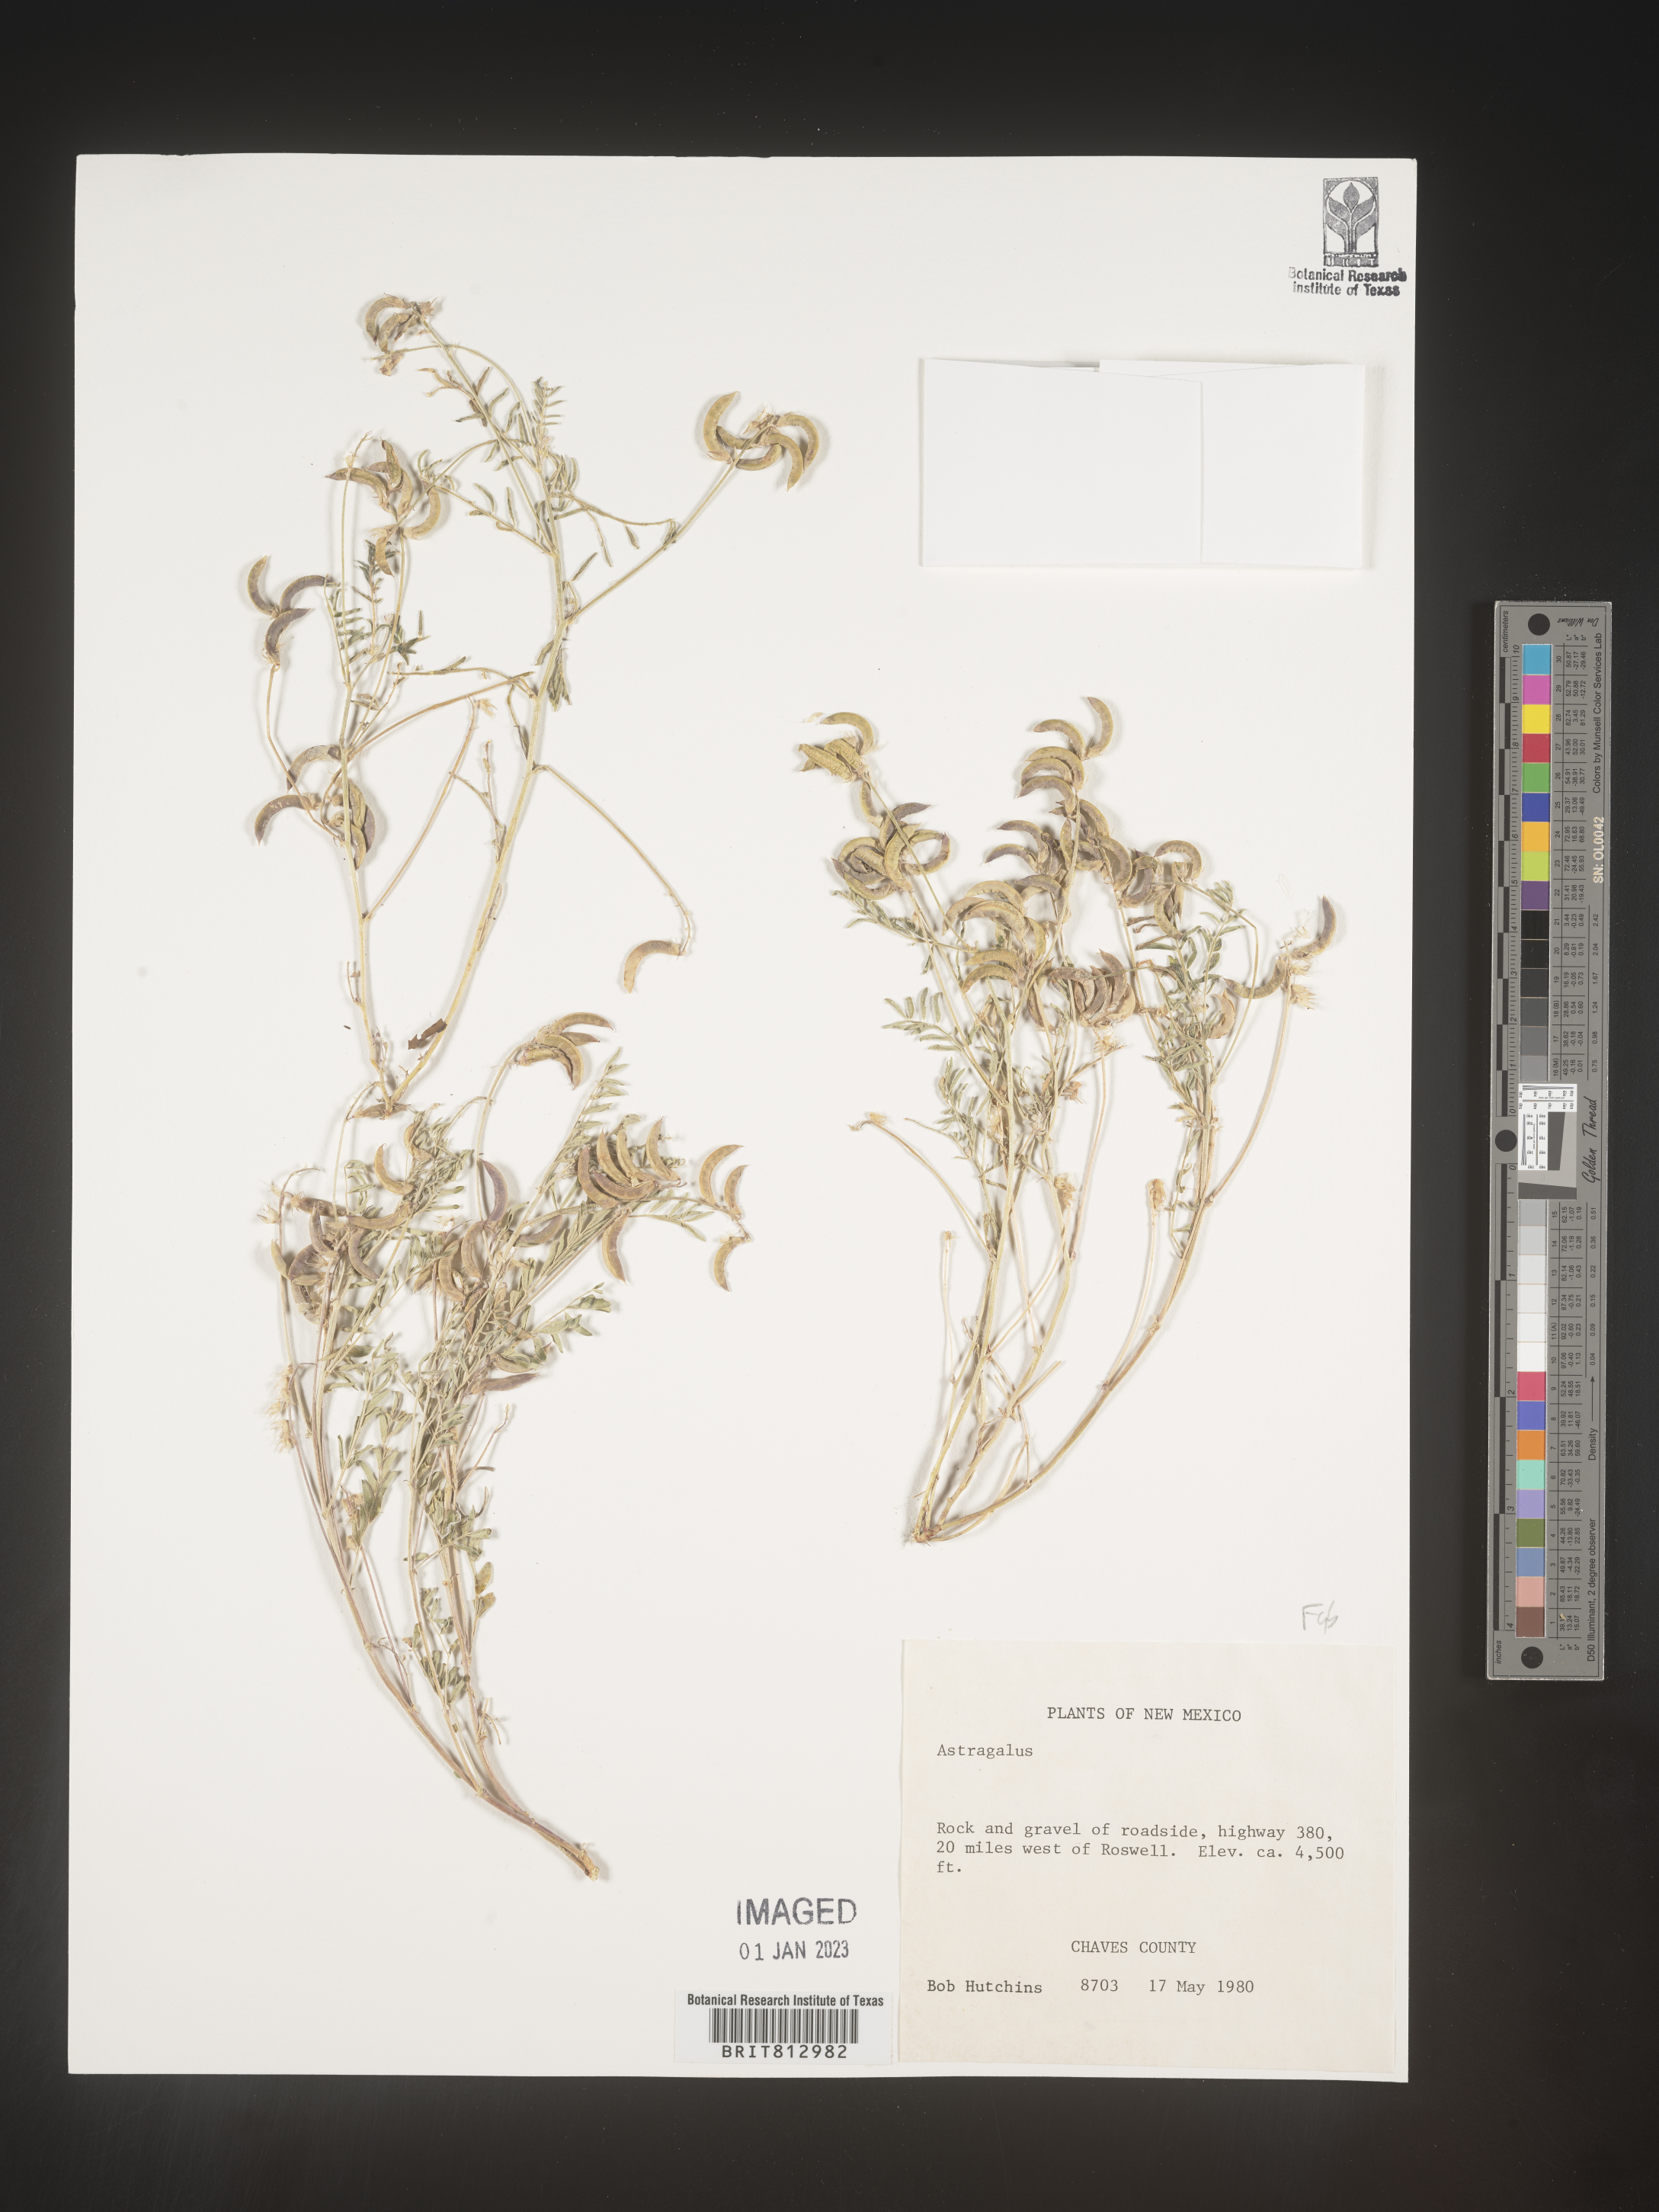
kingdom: Plantae
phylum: Tracheophyta
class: Magnoliopsida
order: Fabales
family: Fabaceae
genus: Astragalus
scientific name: Astragalus
